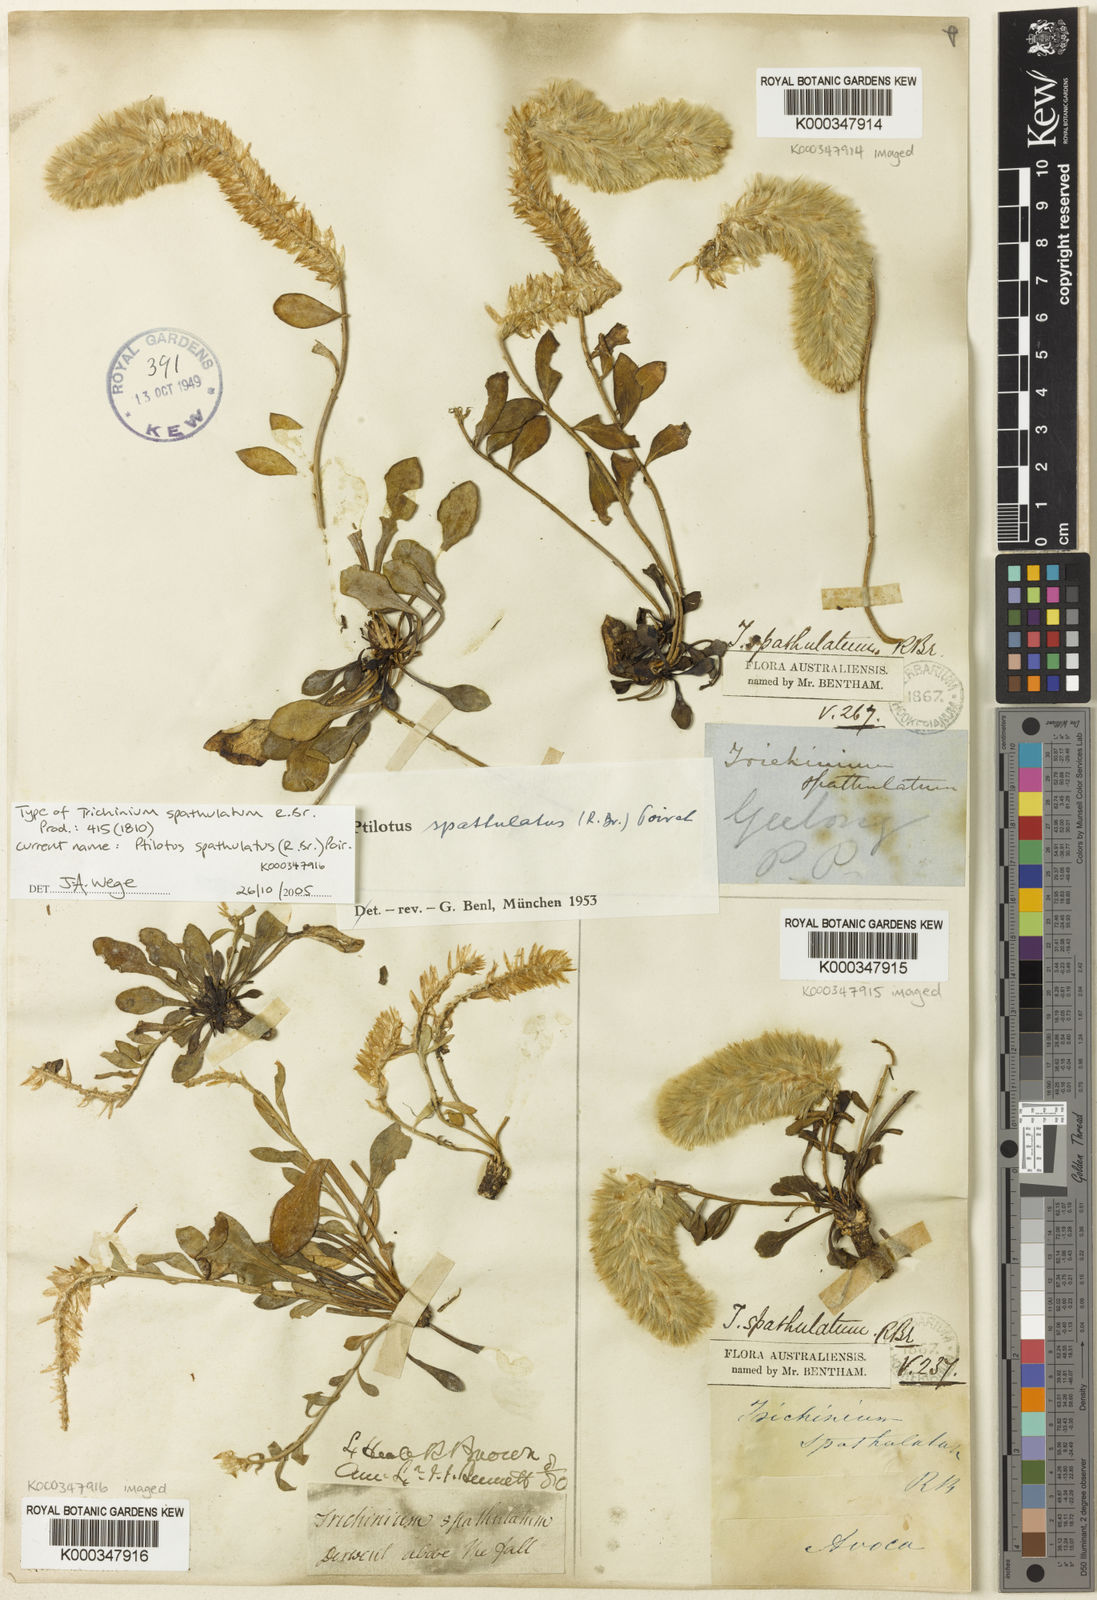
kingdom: Plantae
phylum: Tracheophyta
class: Magnoliopsida
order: Caryophyllales
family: Amaranthaceae
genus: Ptilotus
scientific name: Ptilotus spathulatus
